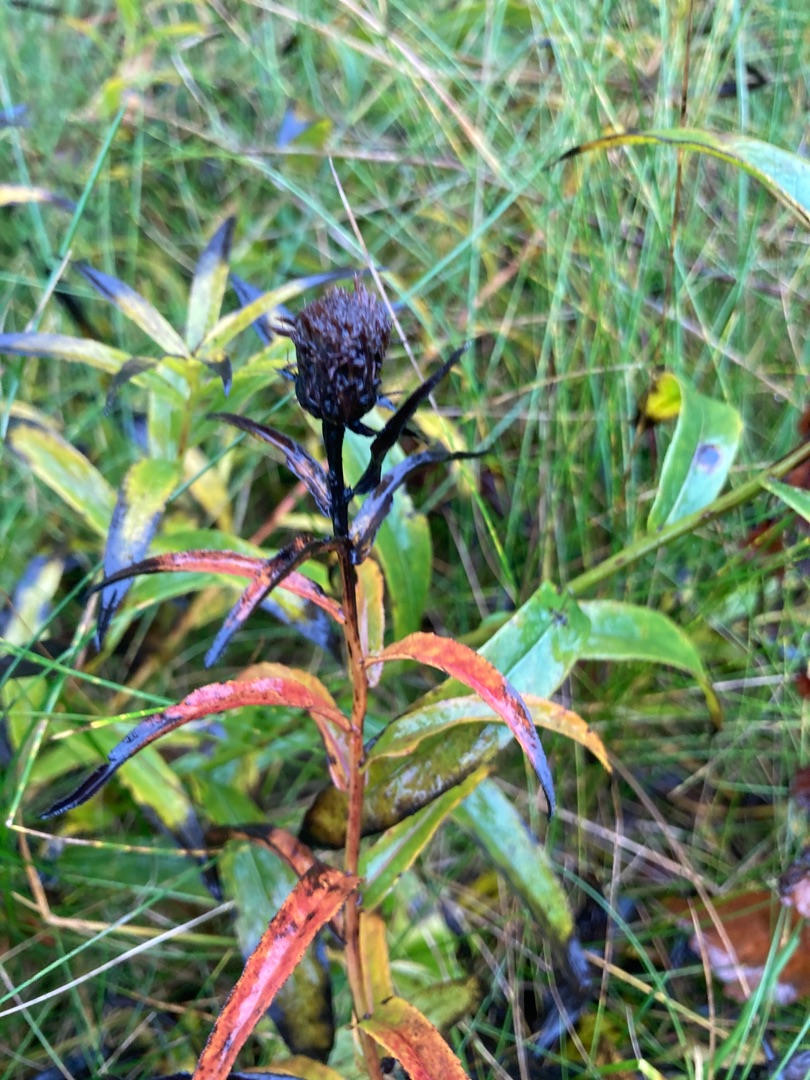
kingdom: Plantae
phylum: Tracheophyta
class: Magnoliopsida
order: Asterales
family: Asteraceae
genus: Pentanema
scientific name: Pentanema salicinum
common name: Pile-alant
